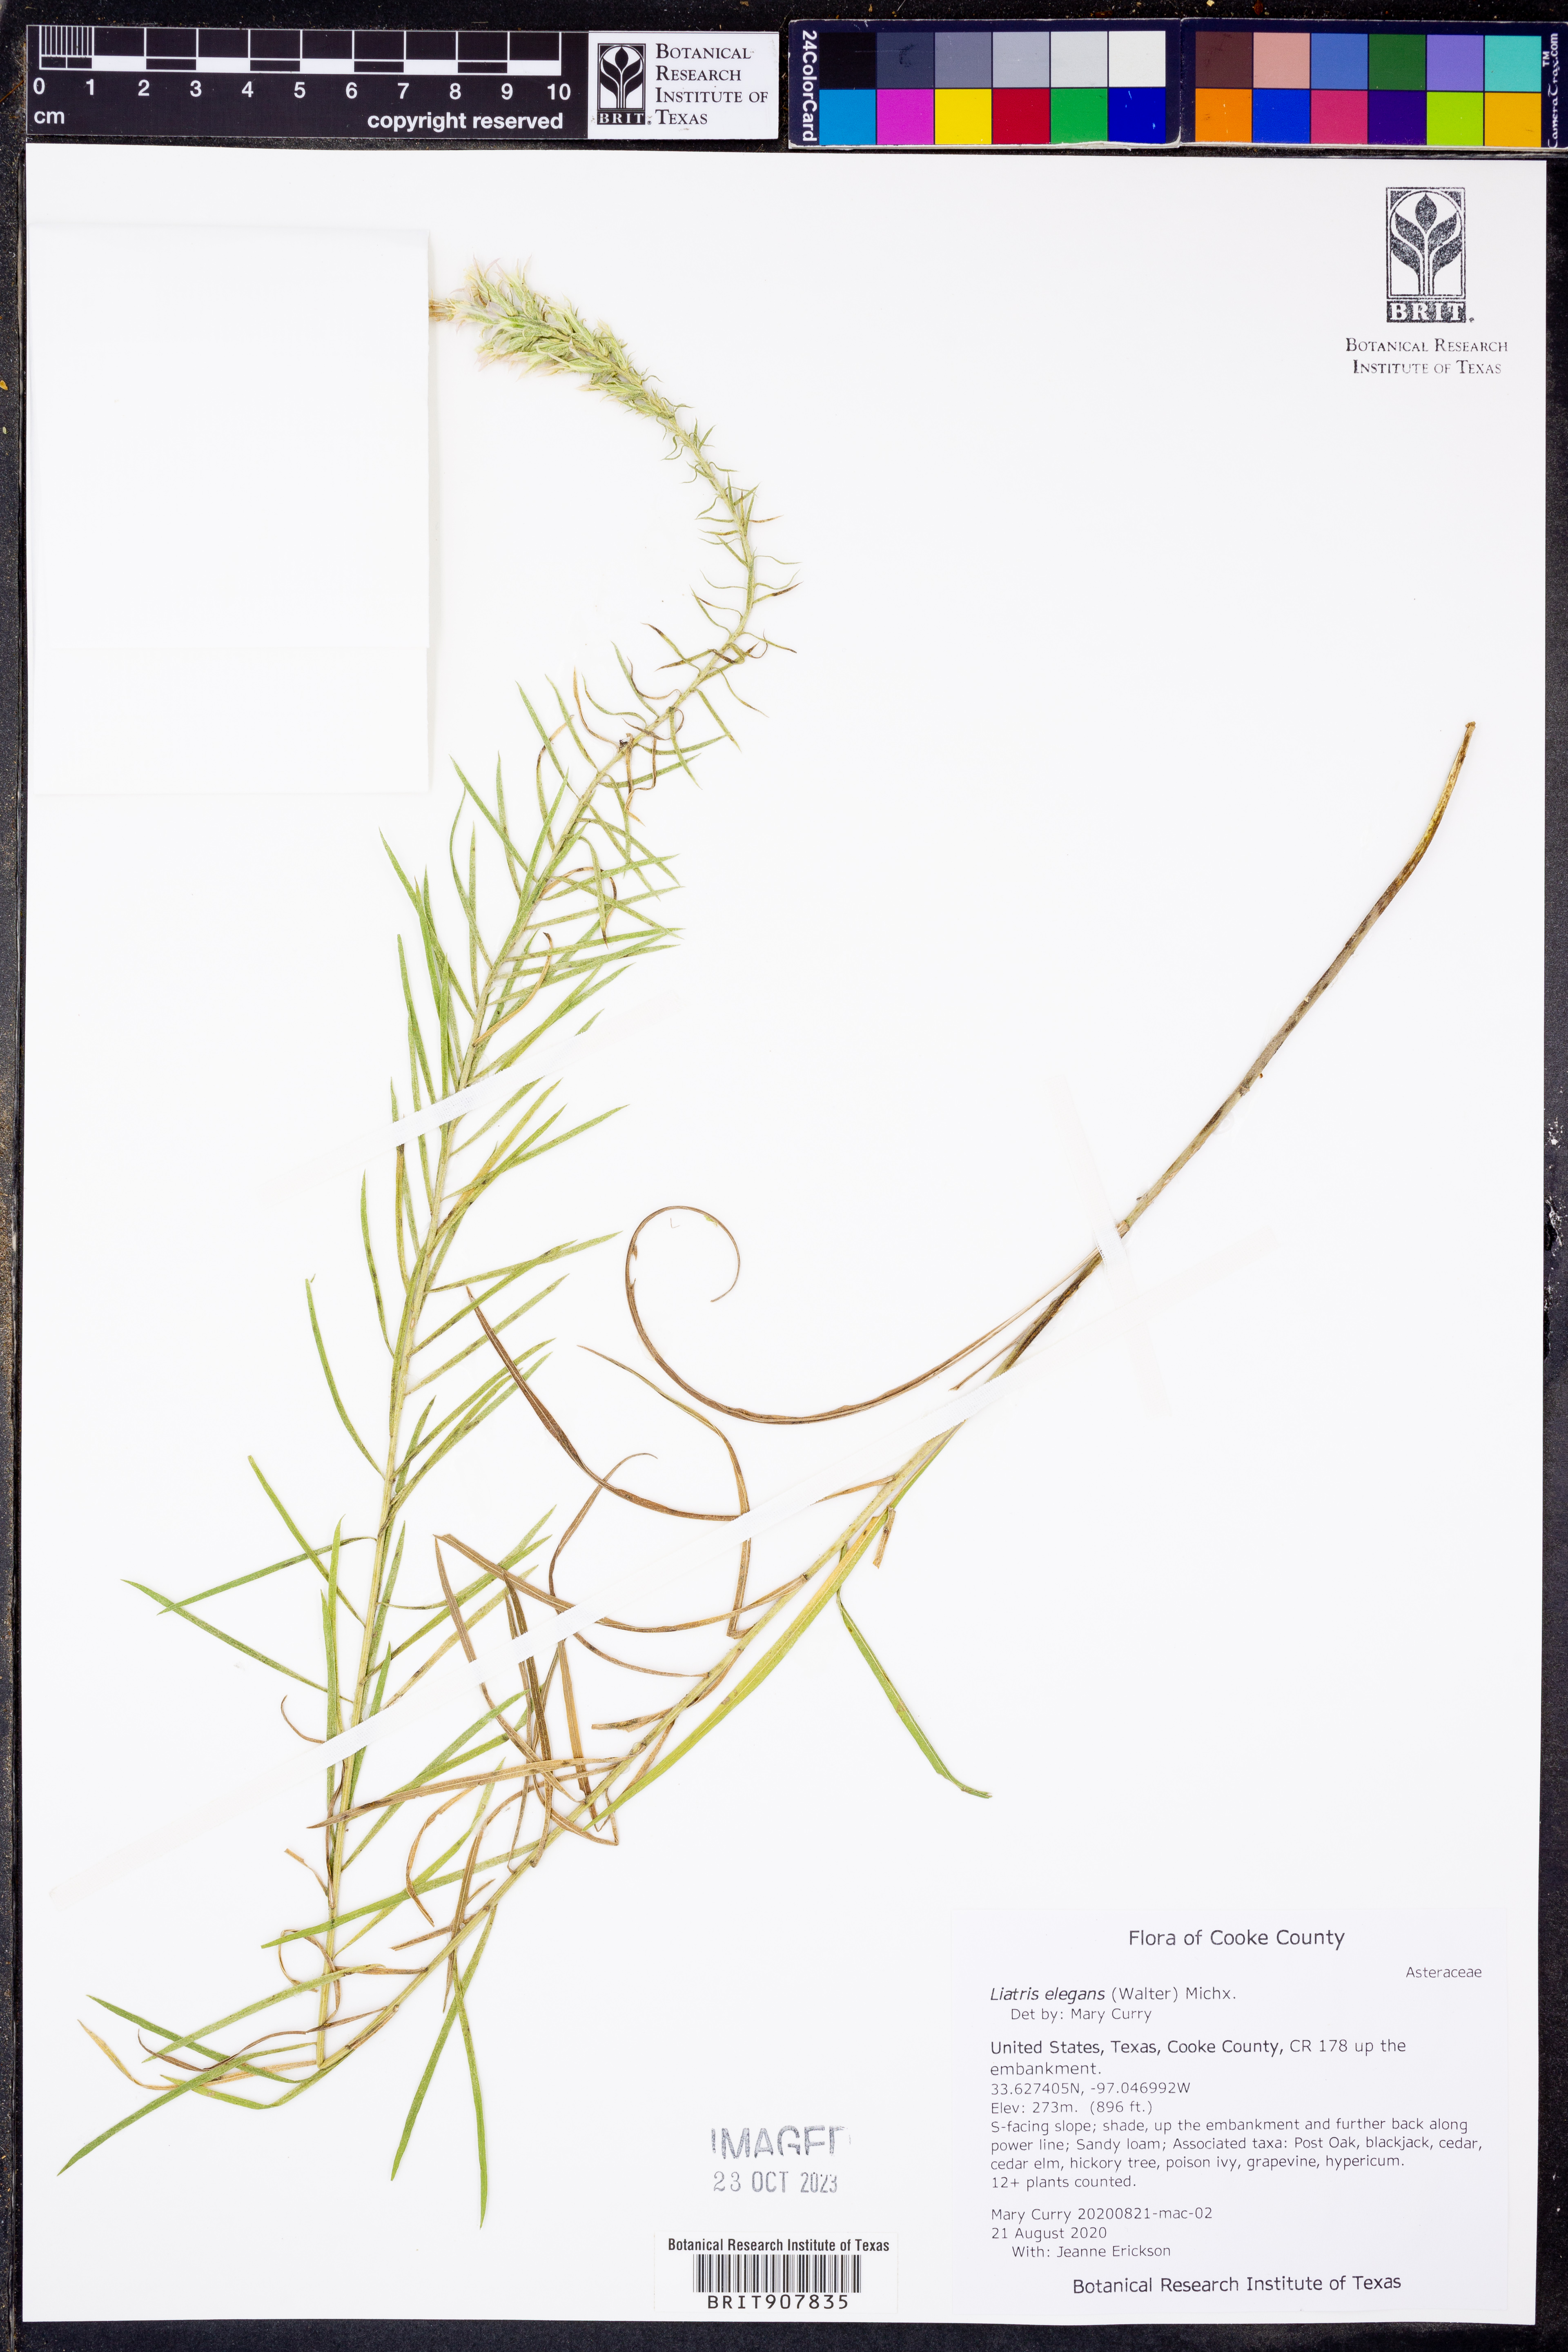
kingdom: Plantae
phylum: Tracheophyta
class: Magnoliopsida
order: Asterales
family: Asteraceae
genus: Liatris
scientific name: Liatris elegans
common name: Pinkscale gayfeather
